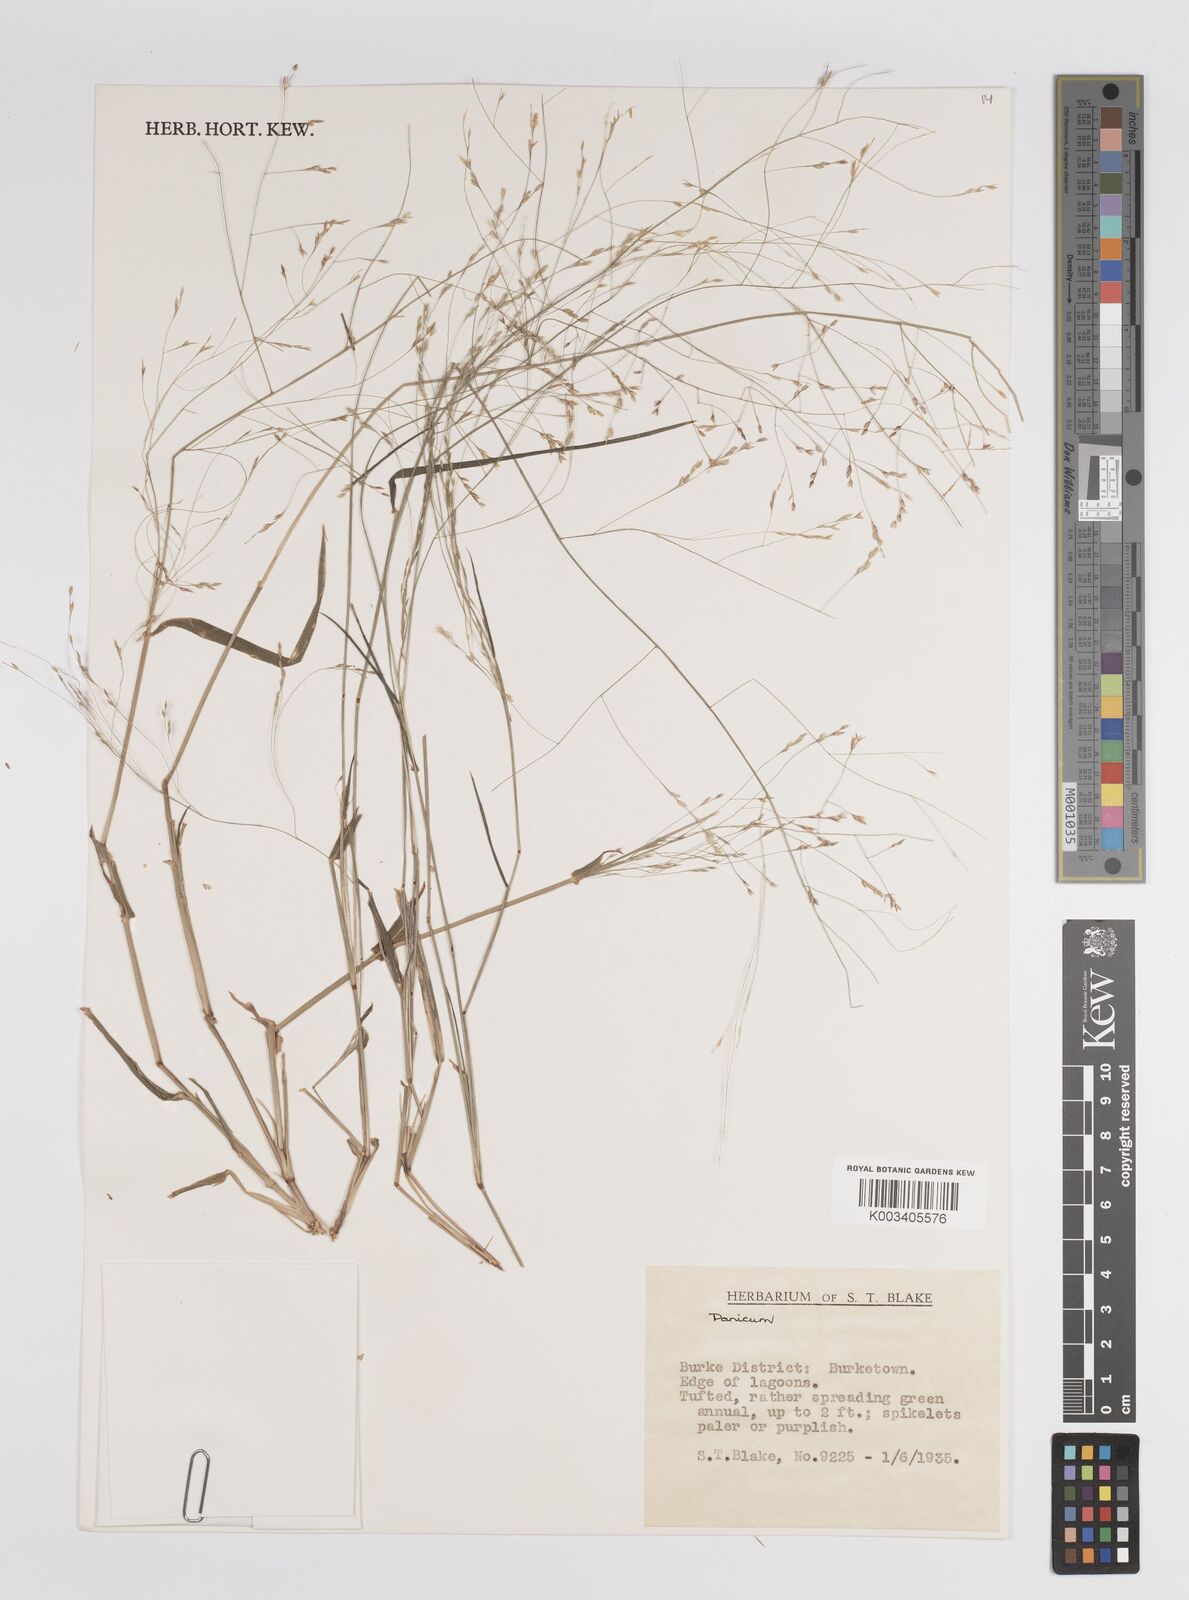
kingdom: Plantae
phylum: Tracheophyta
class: Liliopsida
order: Poales
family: Poaceae
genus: Panicum
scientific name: Panicum
